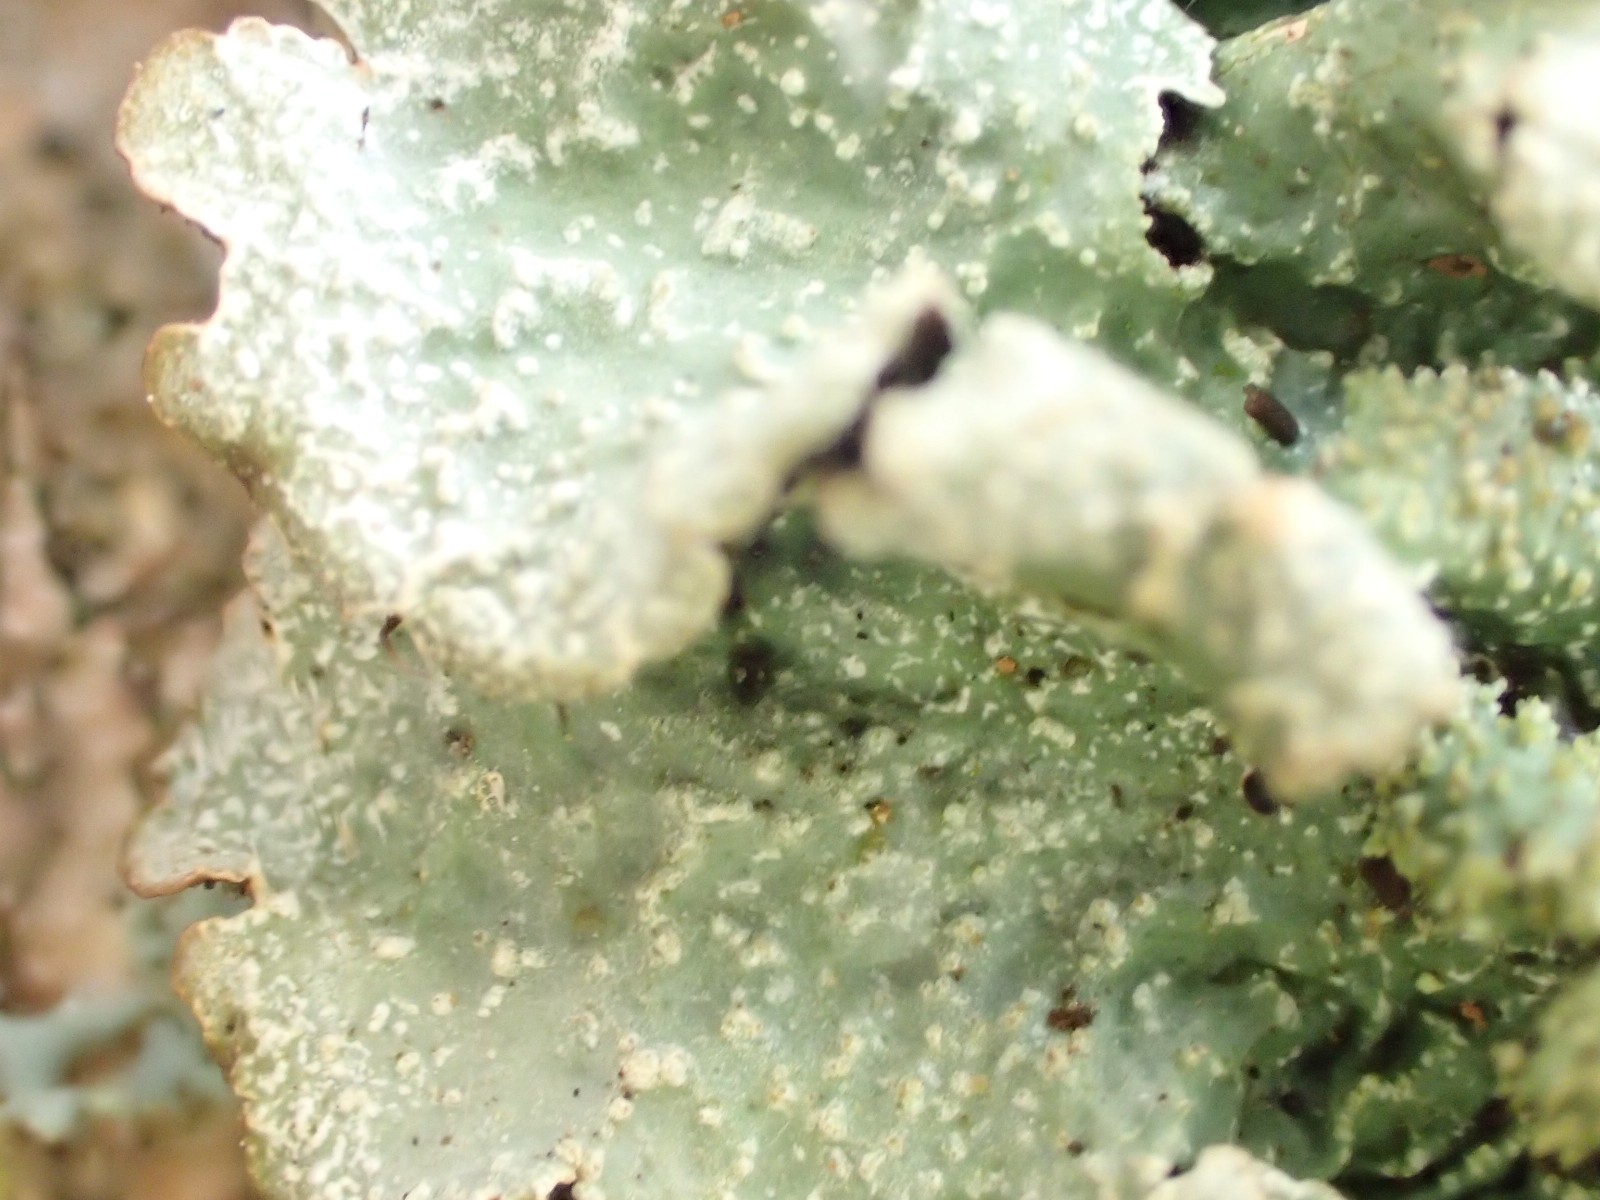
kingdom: Fungi
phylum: Ascomycota
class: Lecanoromycetes
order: Lecanorales
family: Parmeliaceae
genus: Parmelia
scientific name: Parmelia submontana
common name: langlobet skållav
